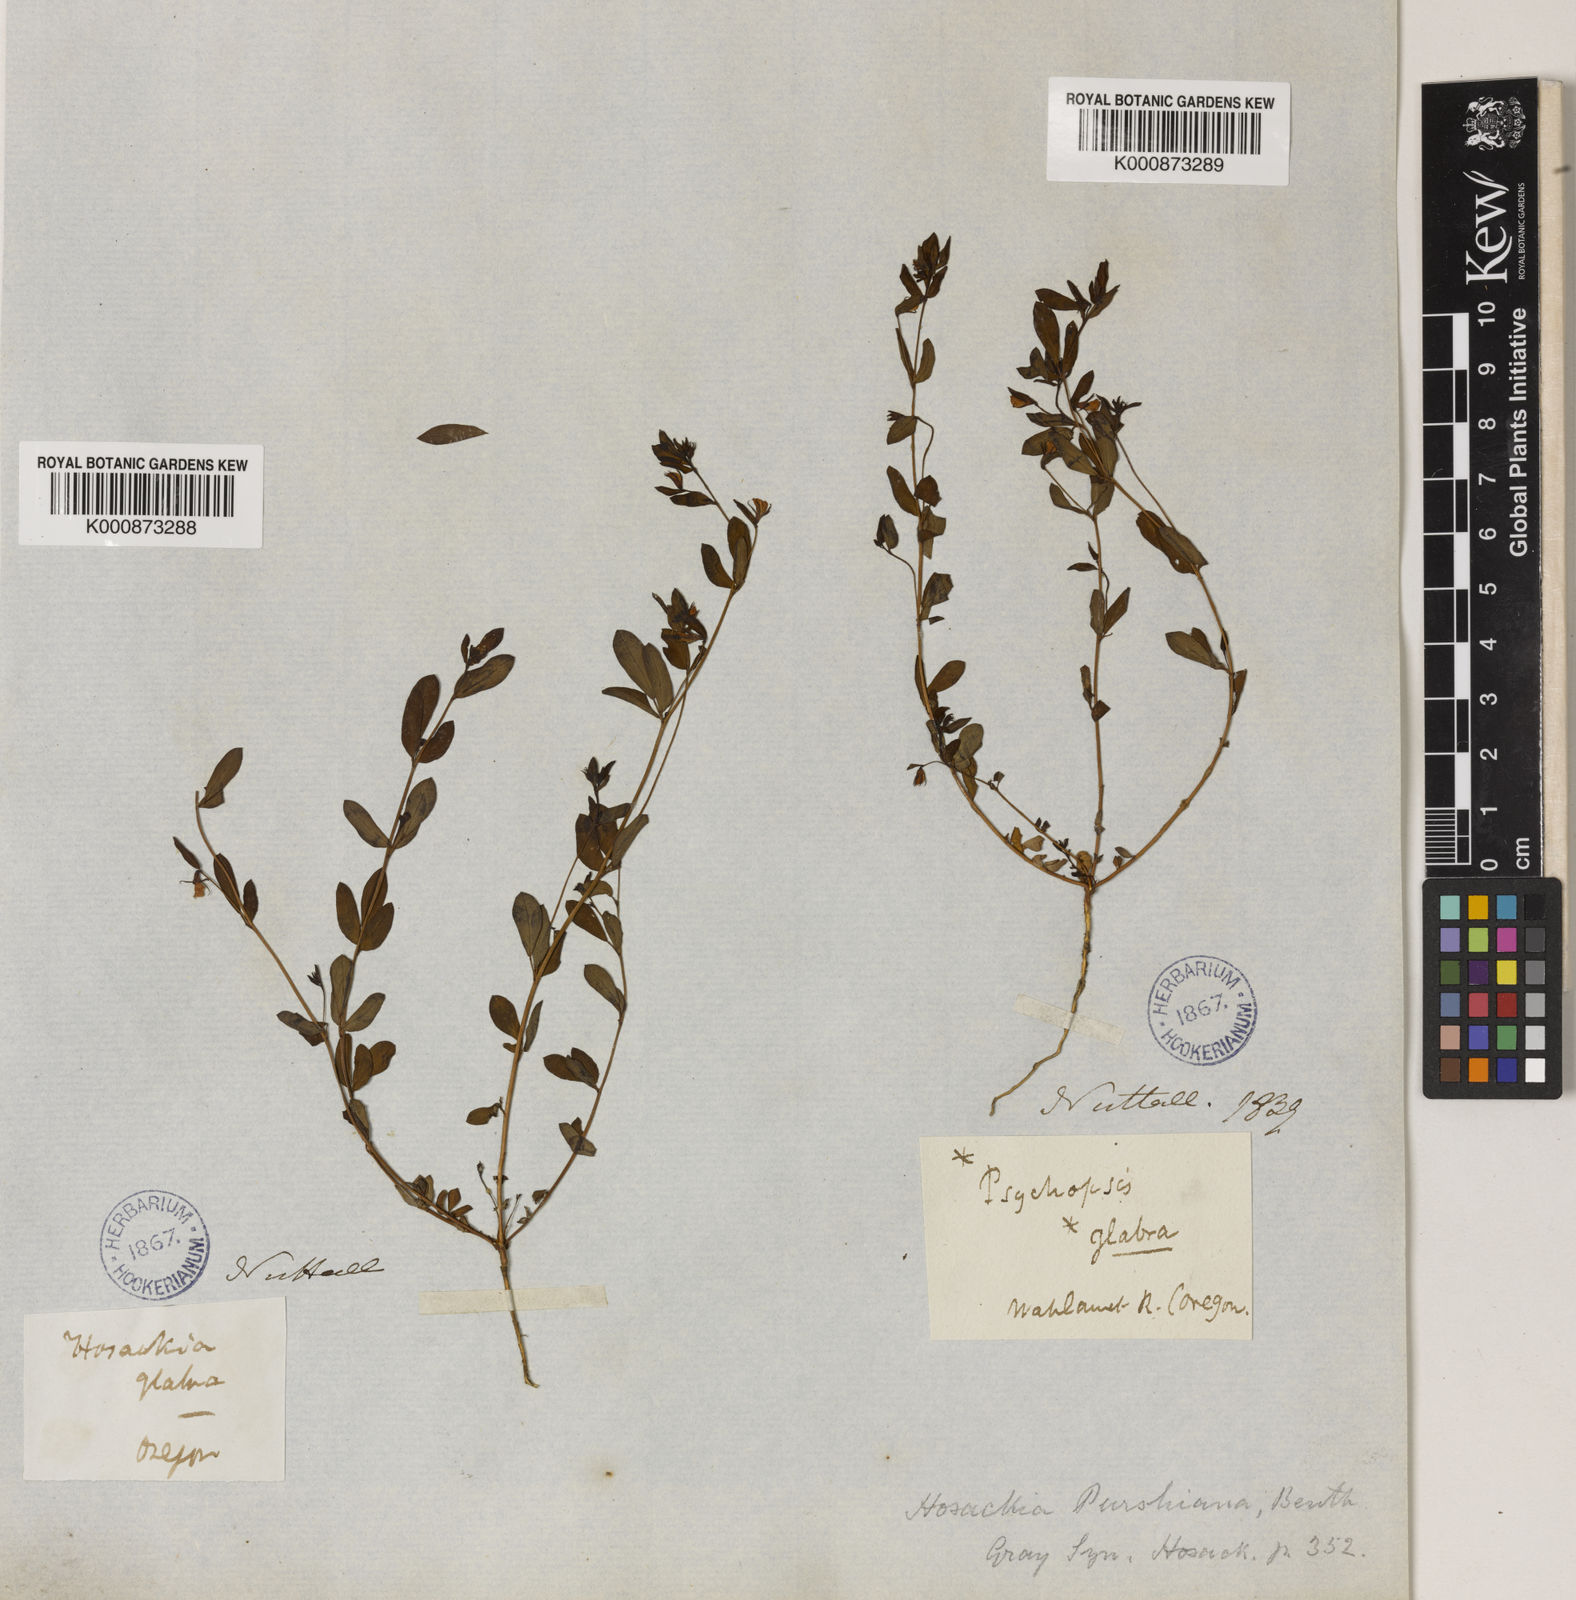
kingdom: Plantae
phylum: Tracheophyta
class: Magnoliopsida
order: Fabales
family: Fabaceae
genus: Collaea
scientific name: Collaea speciosa
